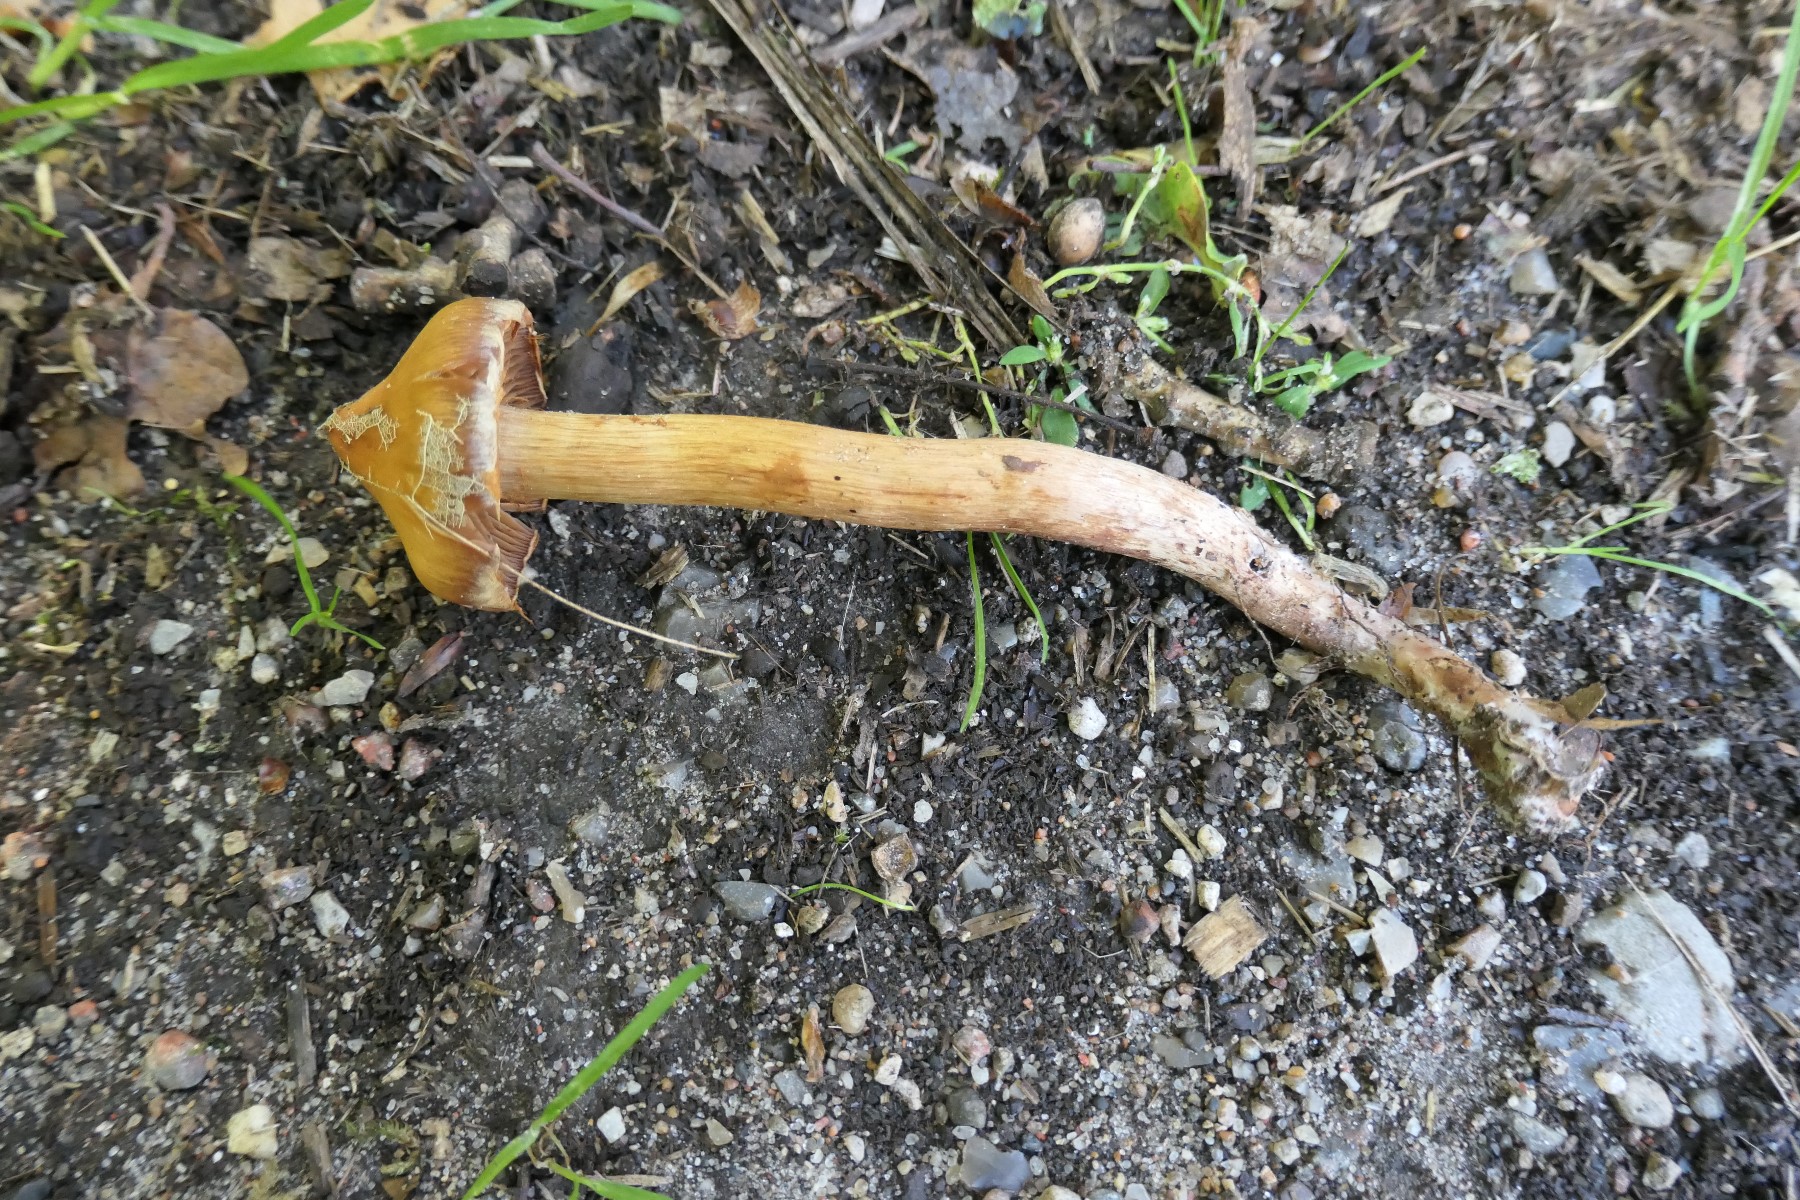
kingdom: Fungi
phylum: Basidiomycota
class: Agaricomycetes
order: Agaricales
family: Cortinariaceae
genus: Cortinarius
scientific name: Cortinarius
